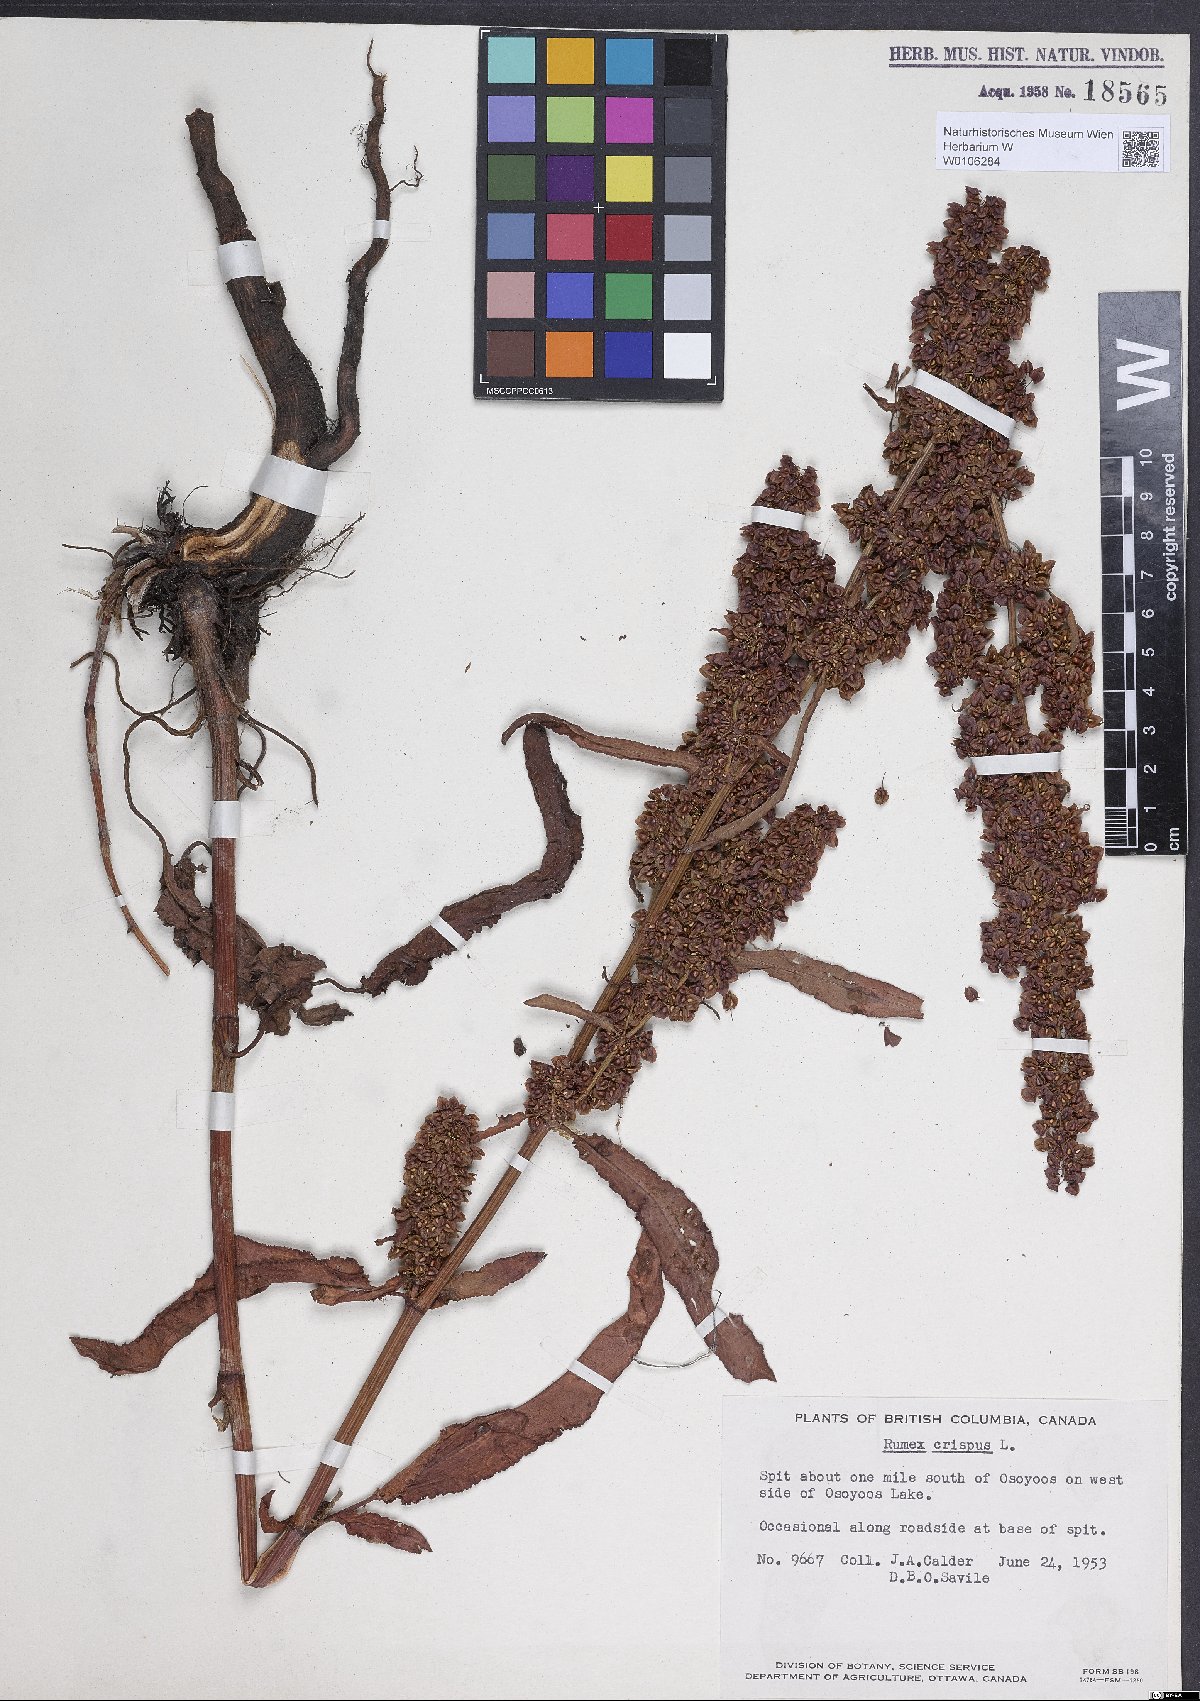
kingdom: Plantae
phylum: Tracheophyta
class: Magnoliopsida
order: Caryophyllales
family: Polygonaceae
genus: Rumex
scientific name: Rumex crispus
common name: Curled dock
